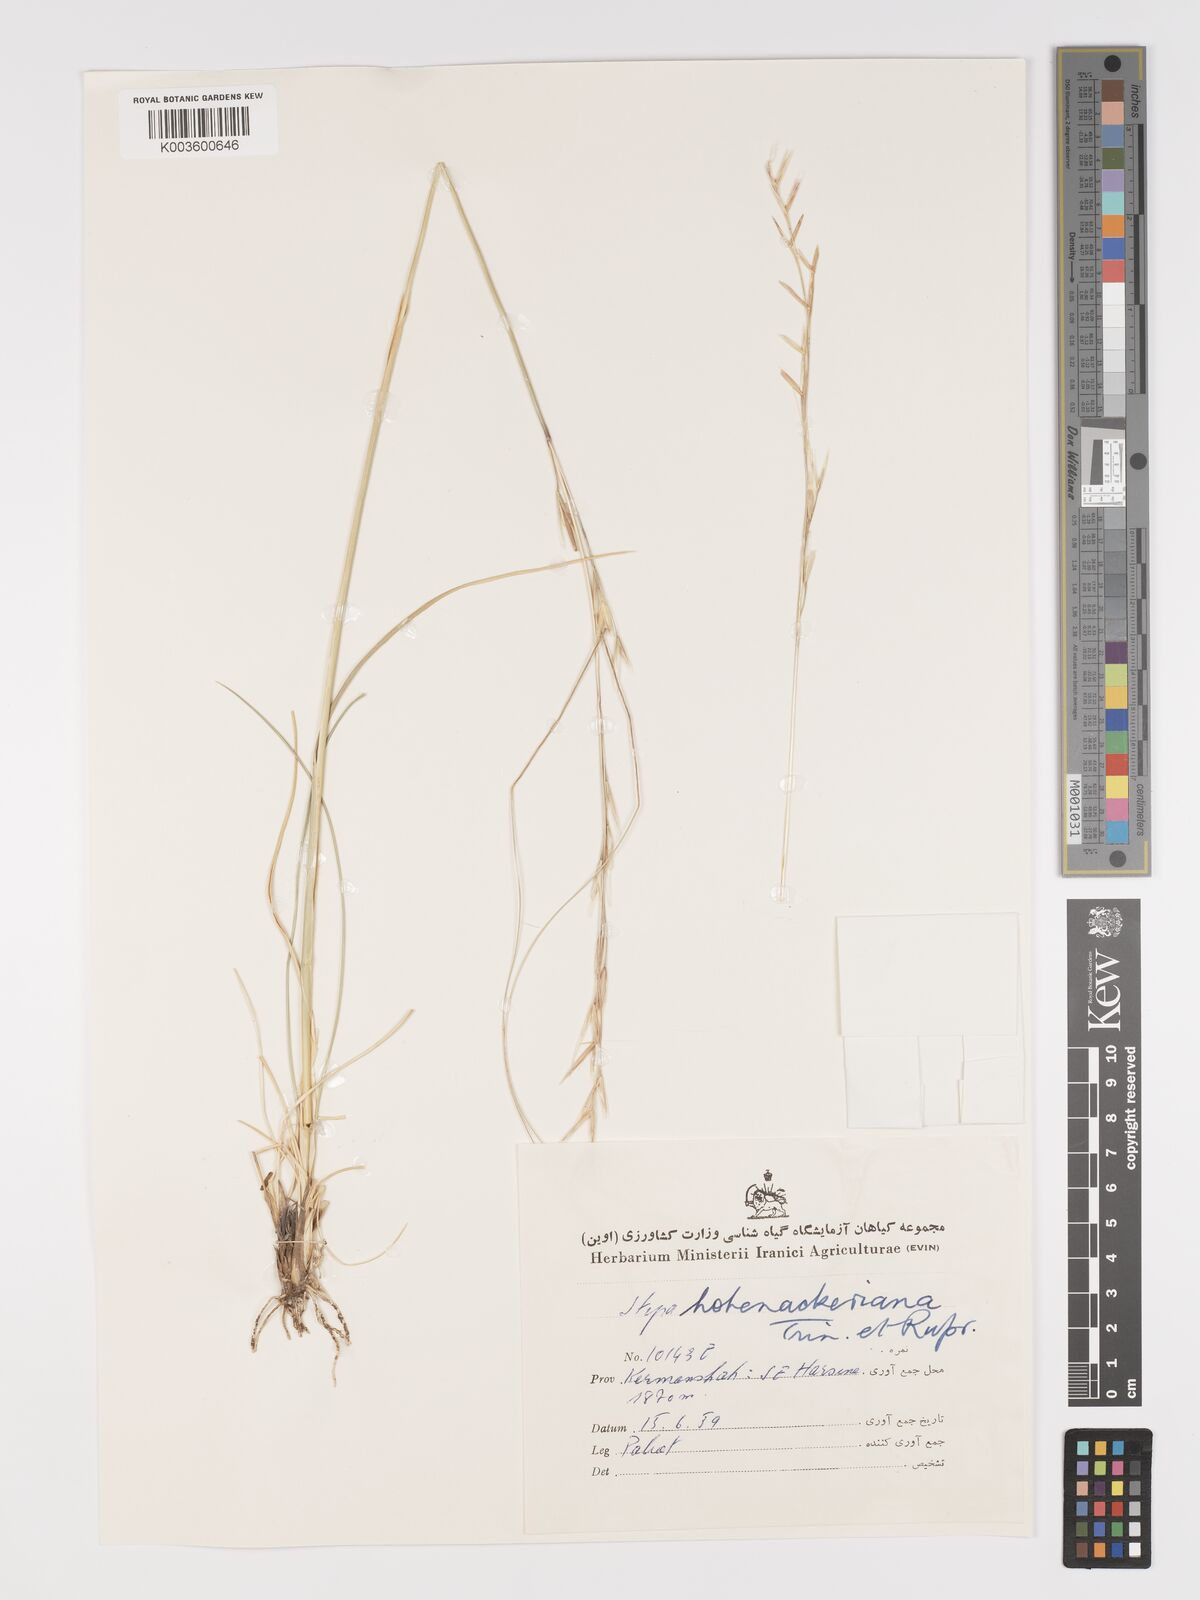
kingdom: Plantae
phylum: Tracheophyta
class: Liliopsida
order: Poales
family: Poaceae
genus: Stipa
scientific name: Stipa hohenackeriana
